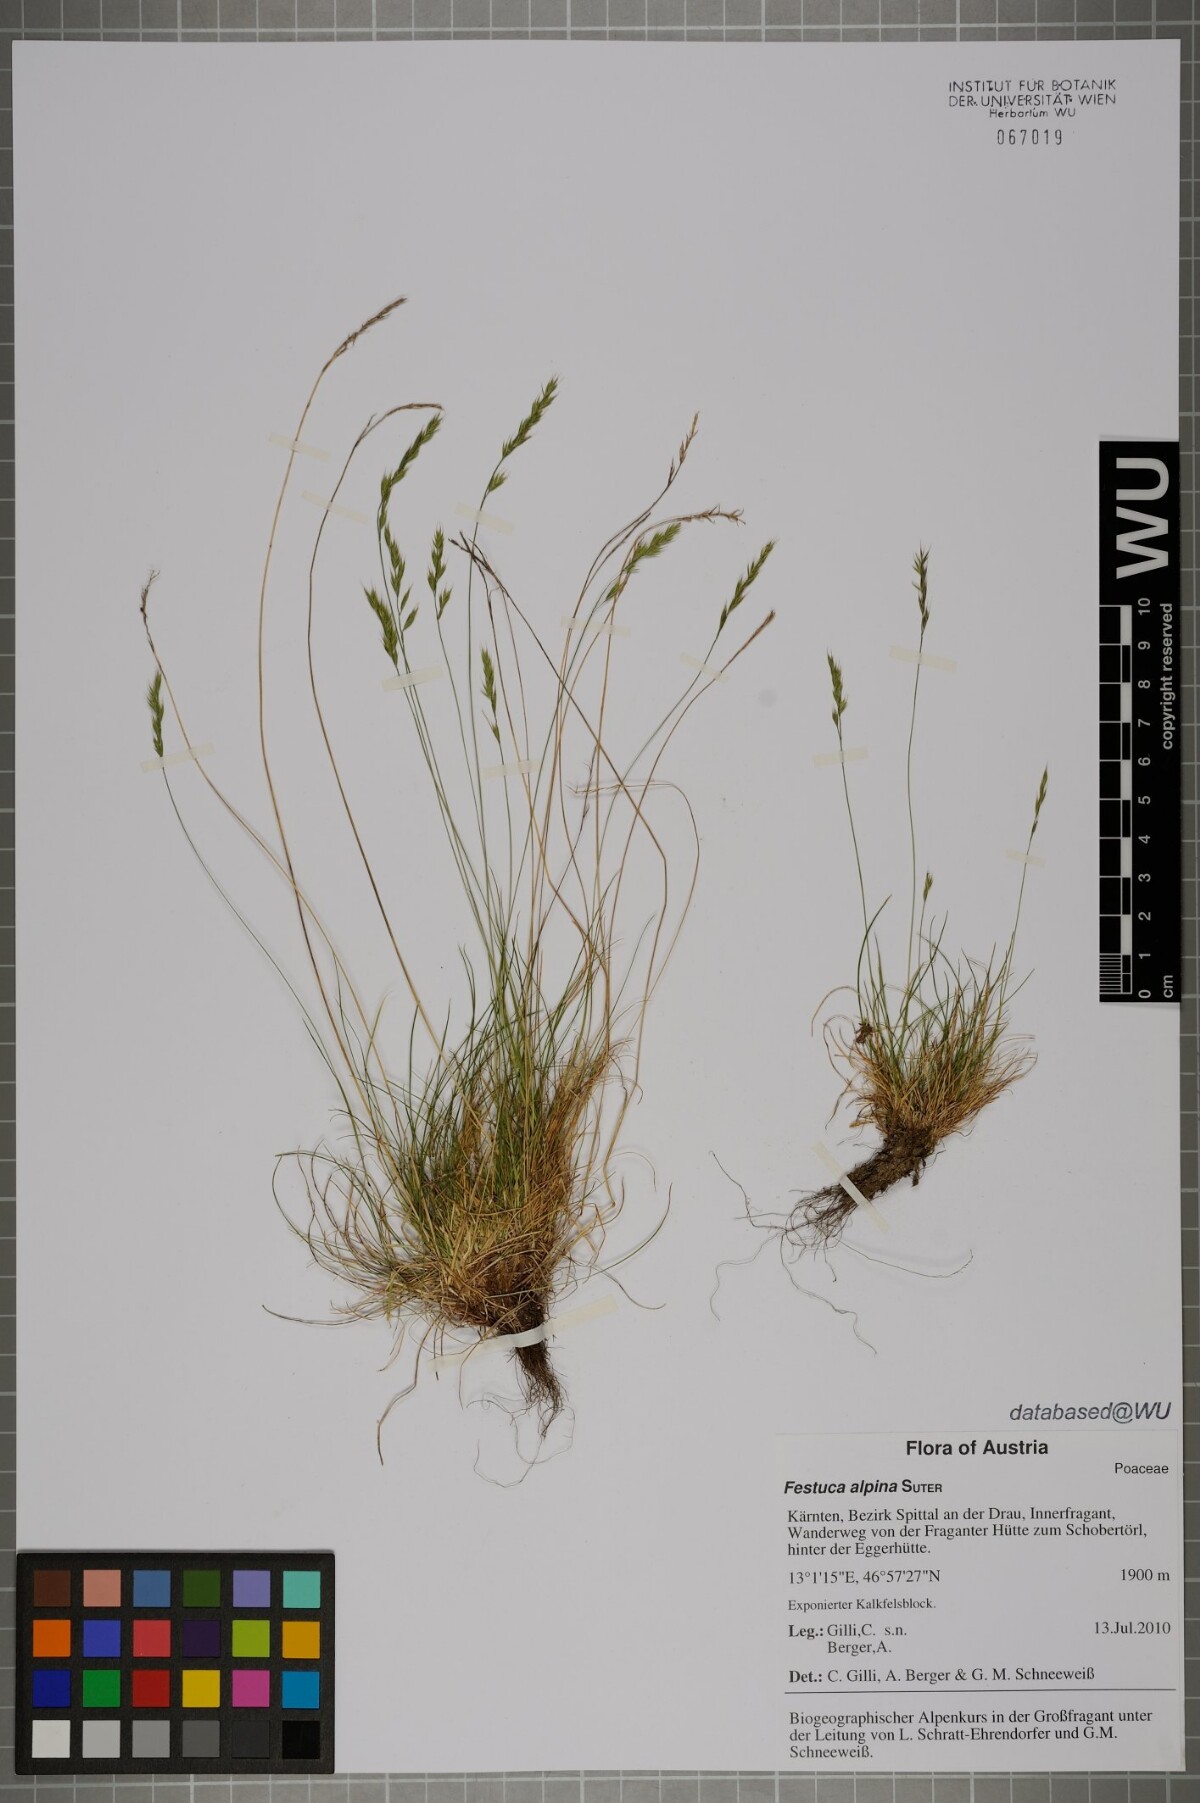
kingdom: Plantae
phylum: Tracheophyta
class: Liliopsida
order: Poales
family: Poaceae
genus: Festuca
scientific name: Festuca alpina
